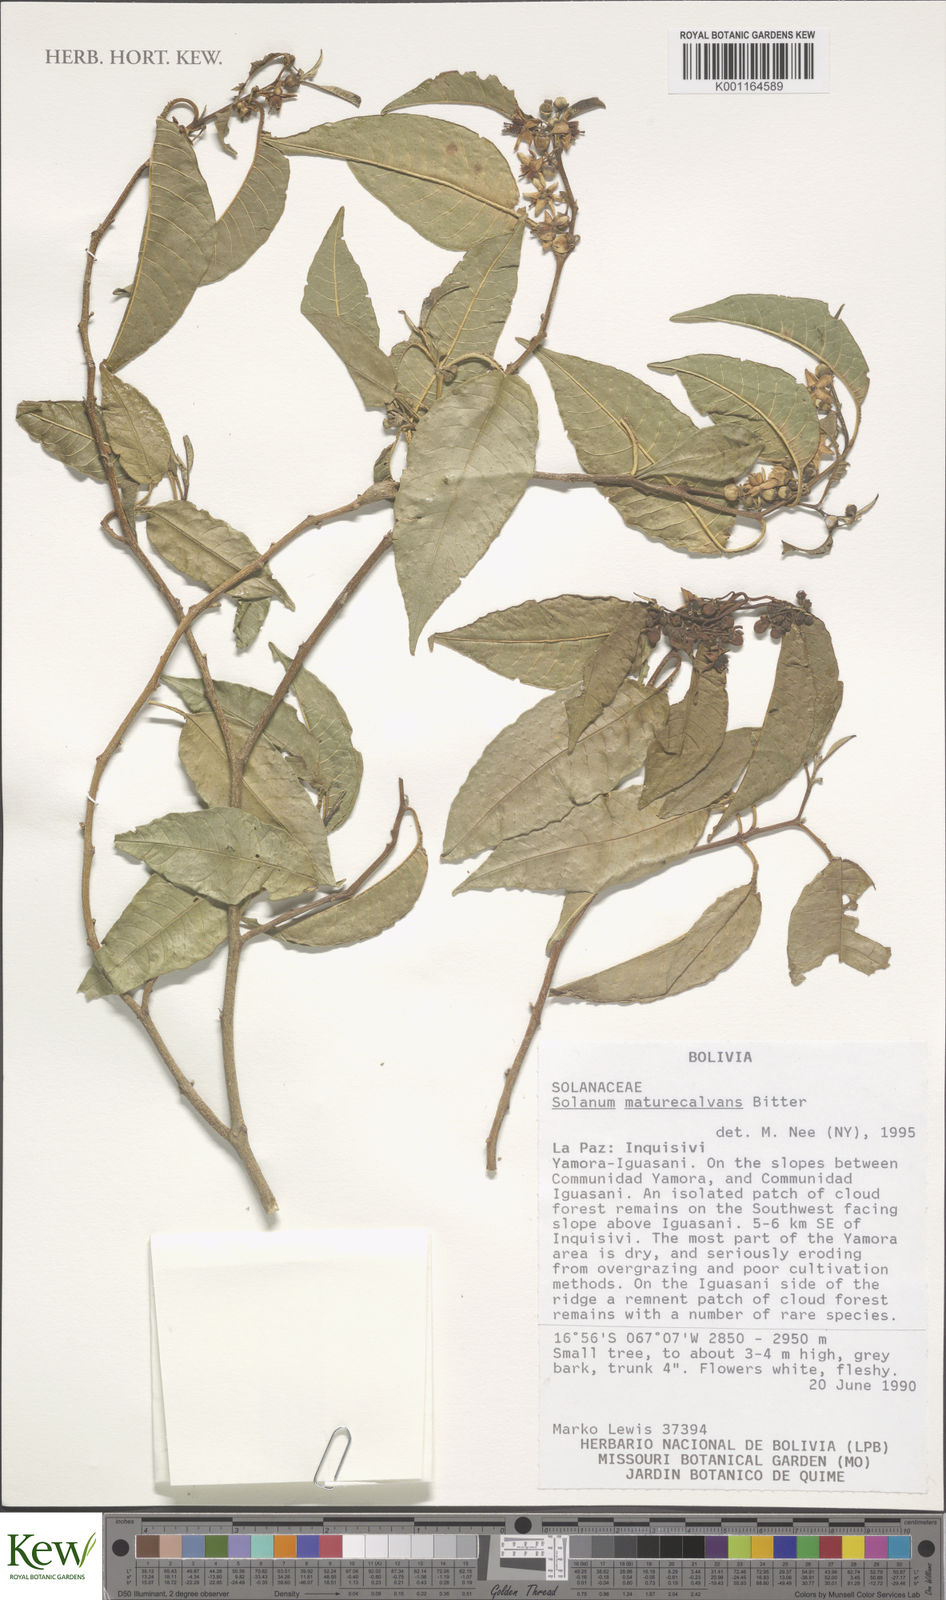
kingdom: Plantae
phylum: Tracheophyta
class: Magnoliopsida
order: Solanales
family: Solanaceae
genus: Solanum
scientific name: Solanum maturecalvans
